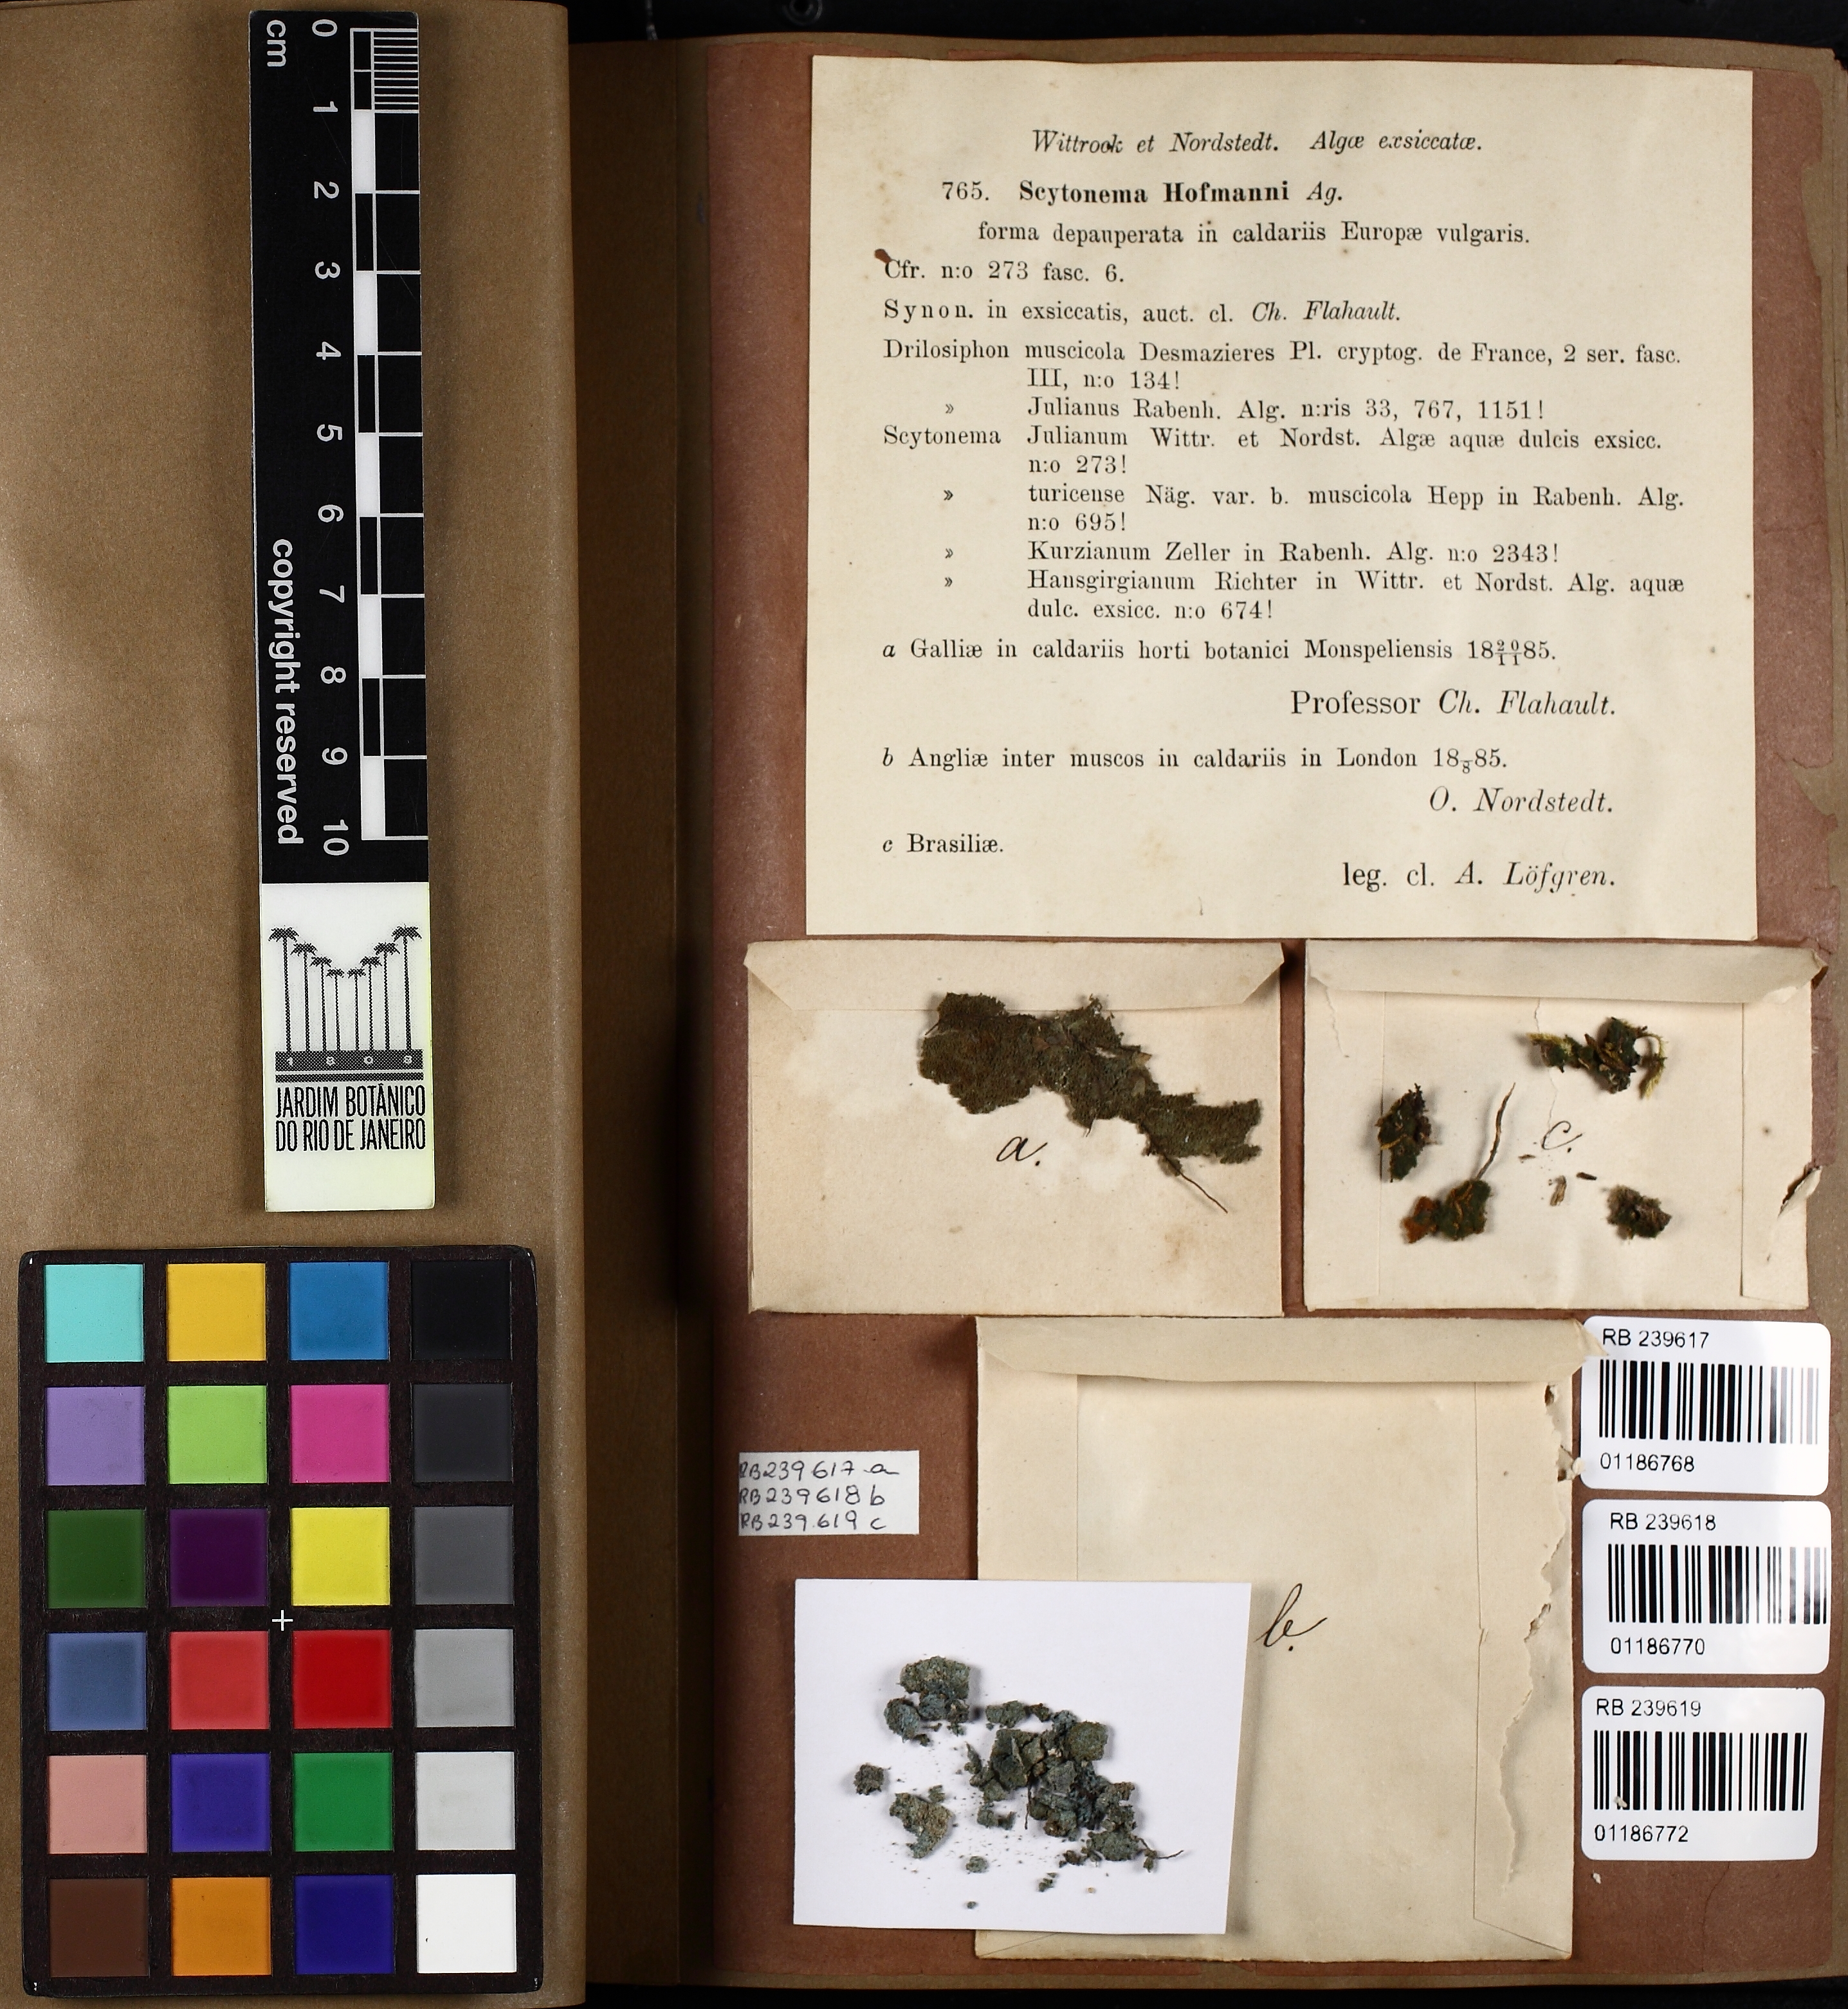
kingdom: Bacteria
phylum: Cyanobacteria
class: Cyanobacteriia
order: Cyanobacteriales
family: Scytonemataceae
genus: Scytonema
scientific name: Scytonema hofmanni
